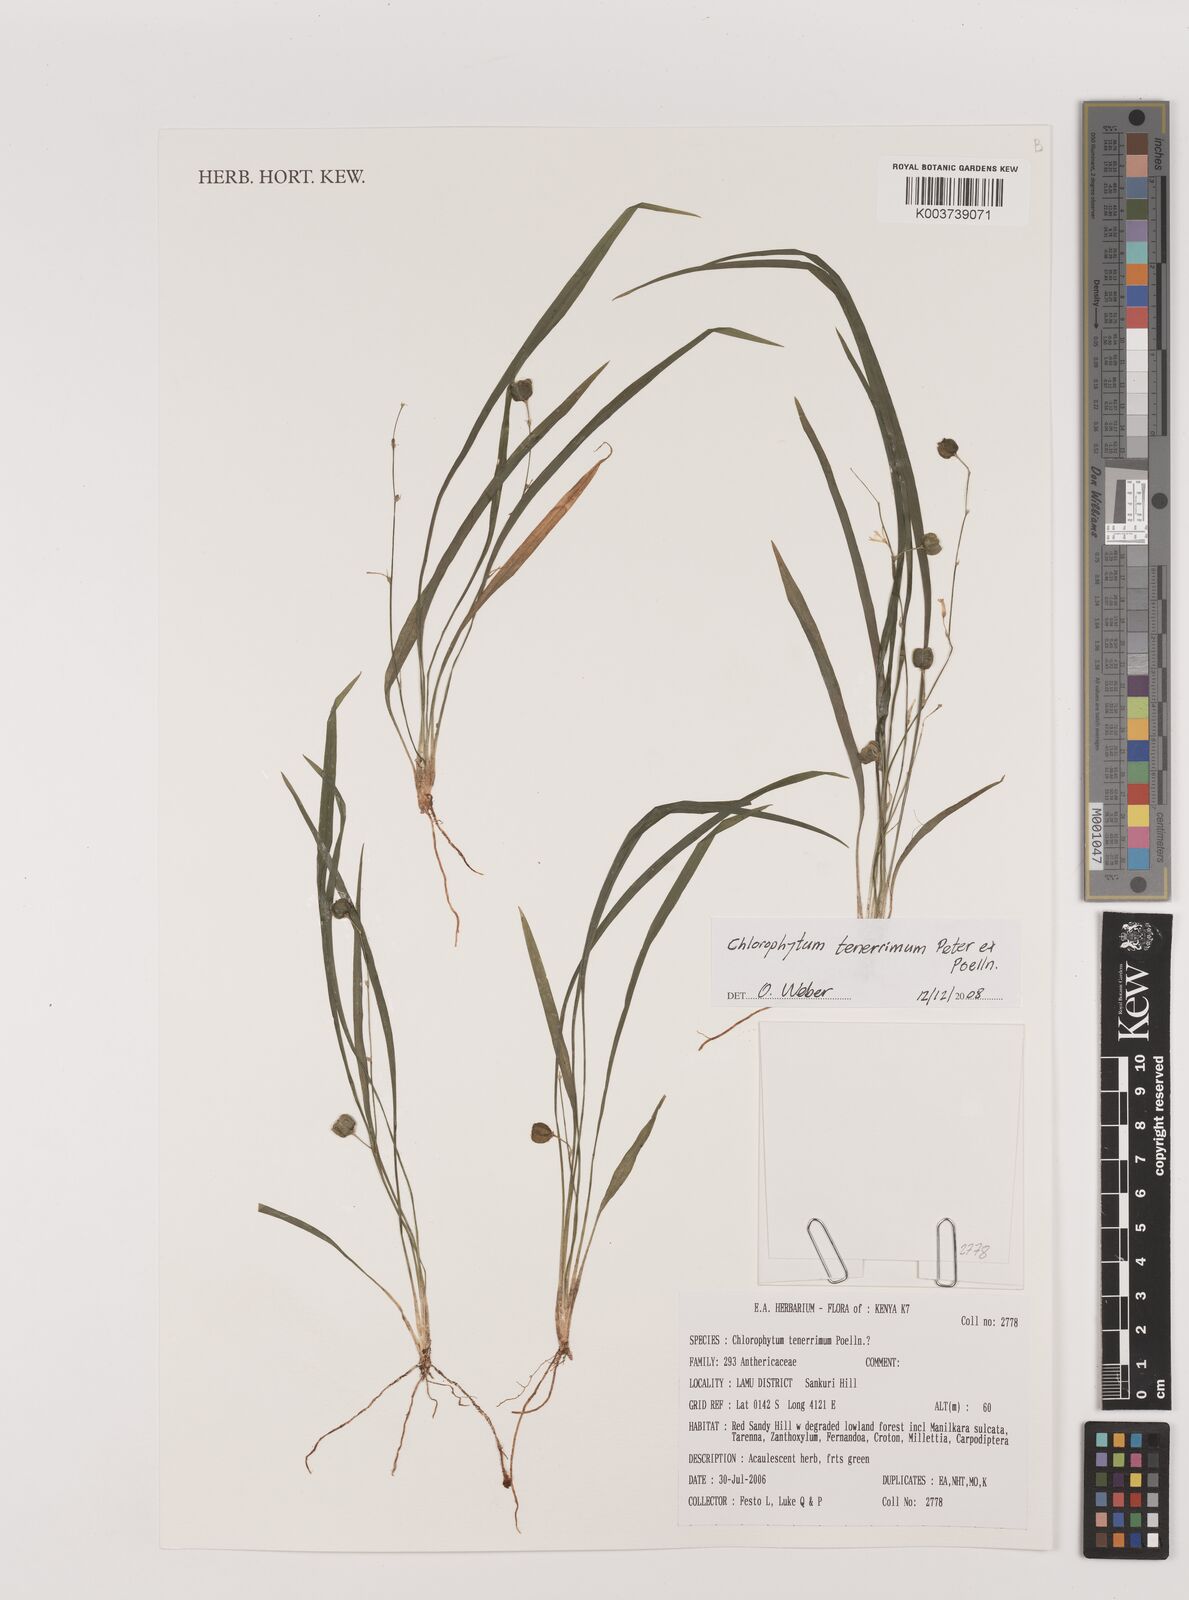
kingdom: Plantae
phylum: Tracheophyta
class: Liliopsida
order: Asparagales
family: Asparagaceae
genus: Chlorophytum
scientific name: Chlorophytum tenerrimum
